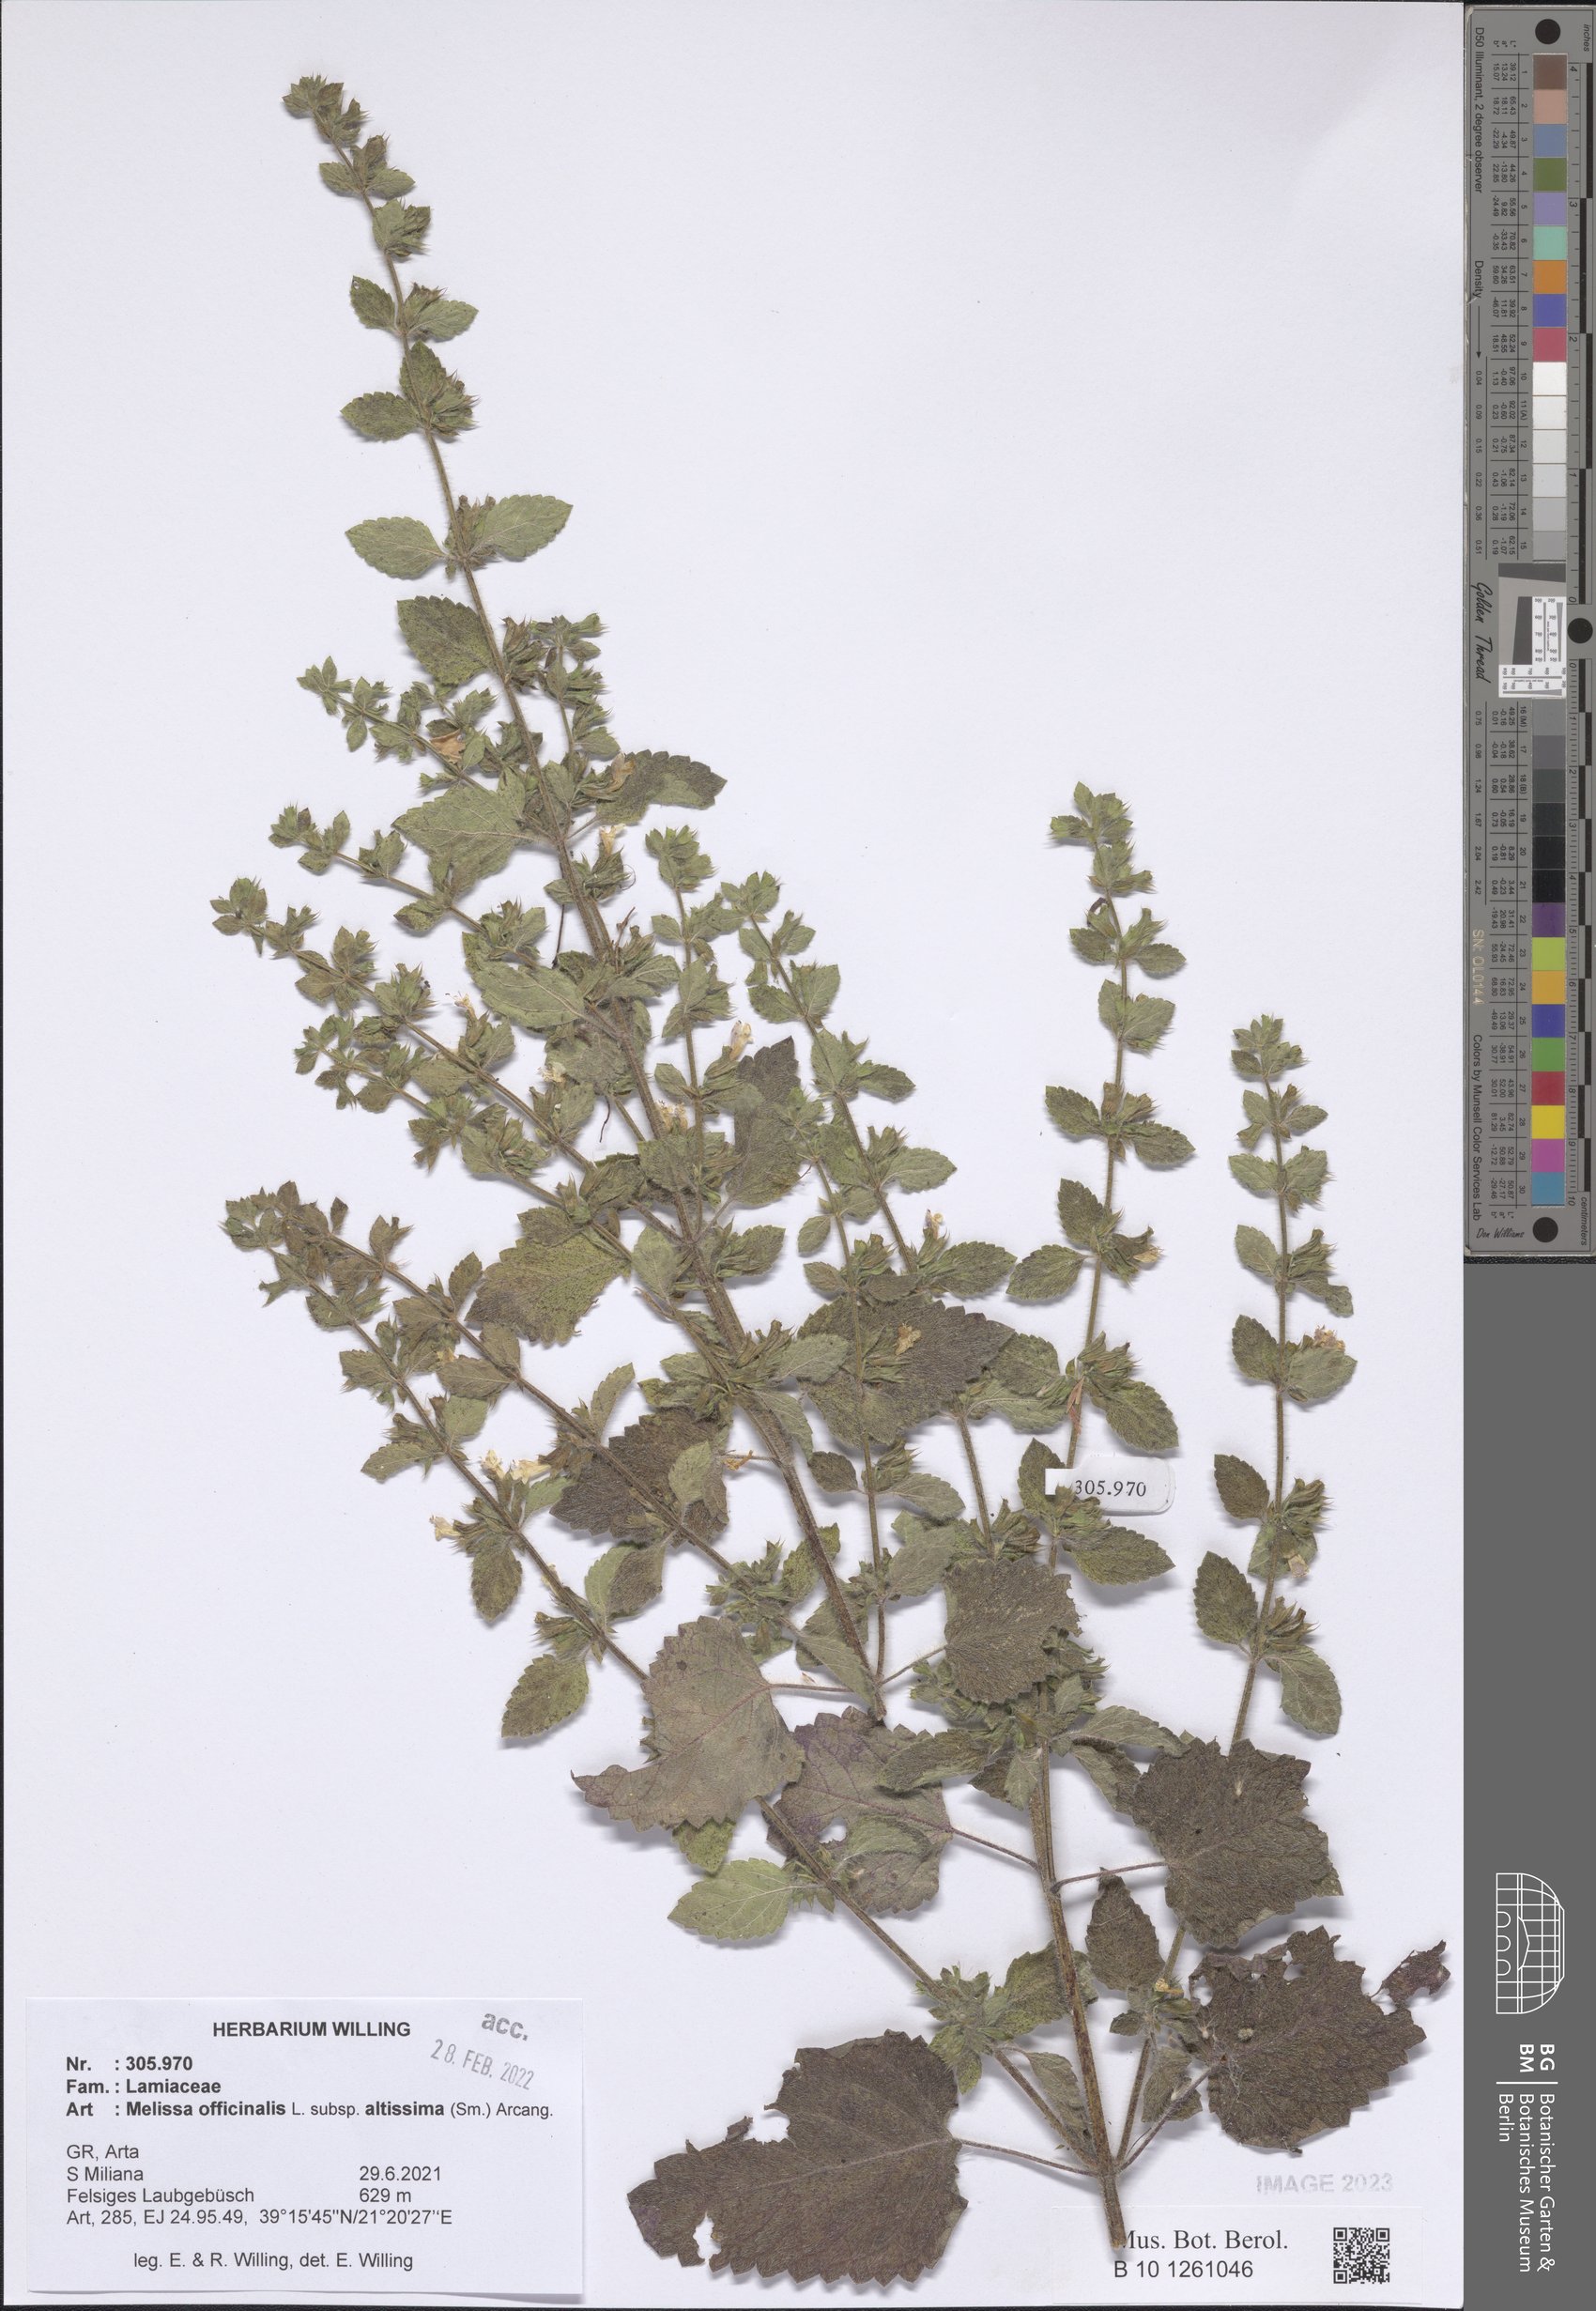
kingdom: Plantae
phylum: Tracheophyta
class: Magnoliopsida
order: Lamiales
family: Lamiaceae
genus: Melissa
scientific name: Melissa officinalis
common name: Balm
